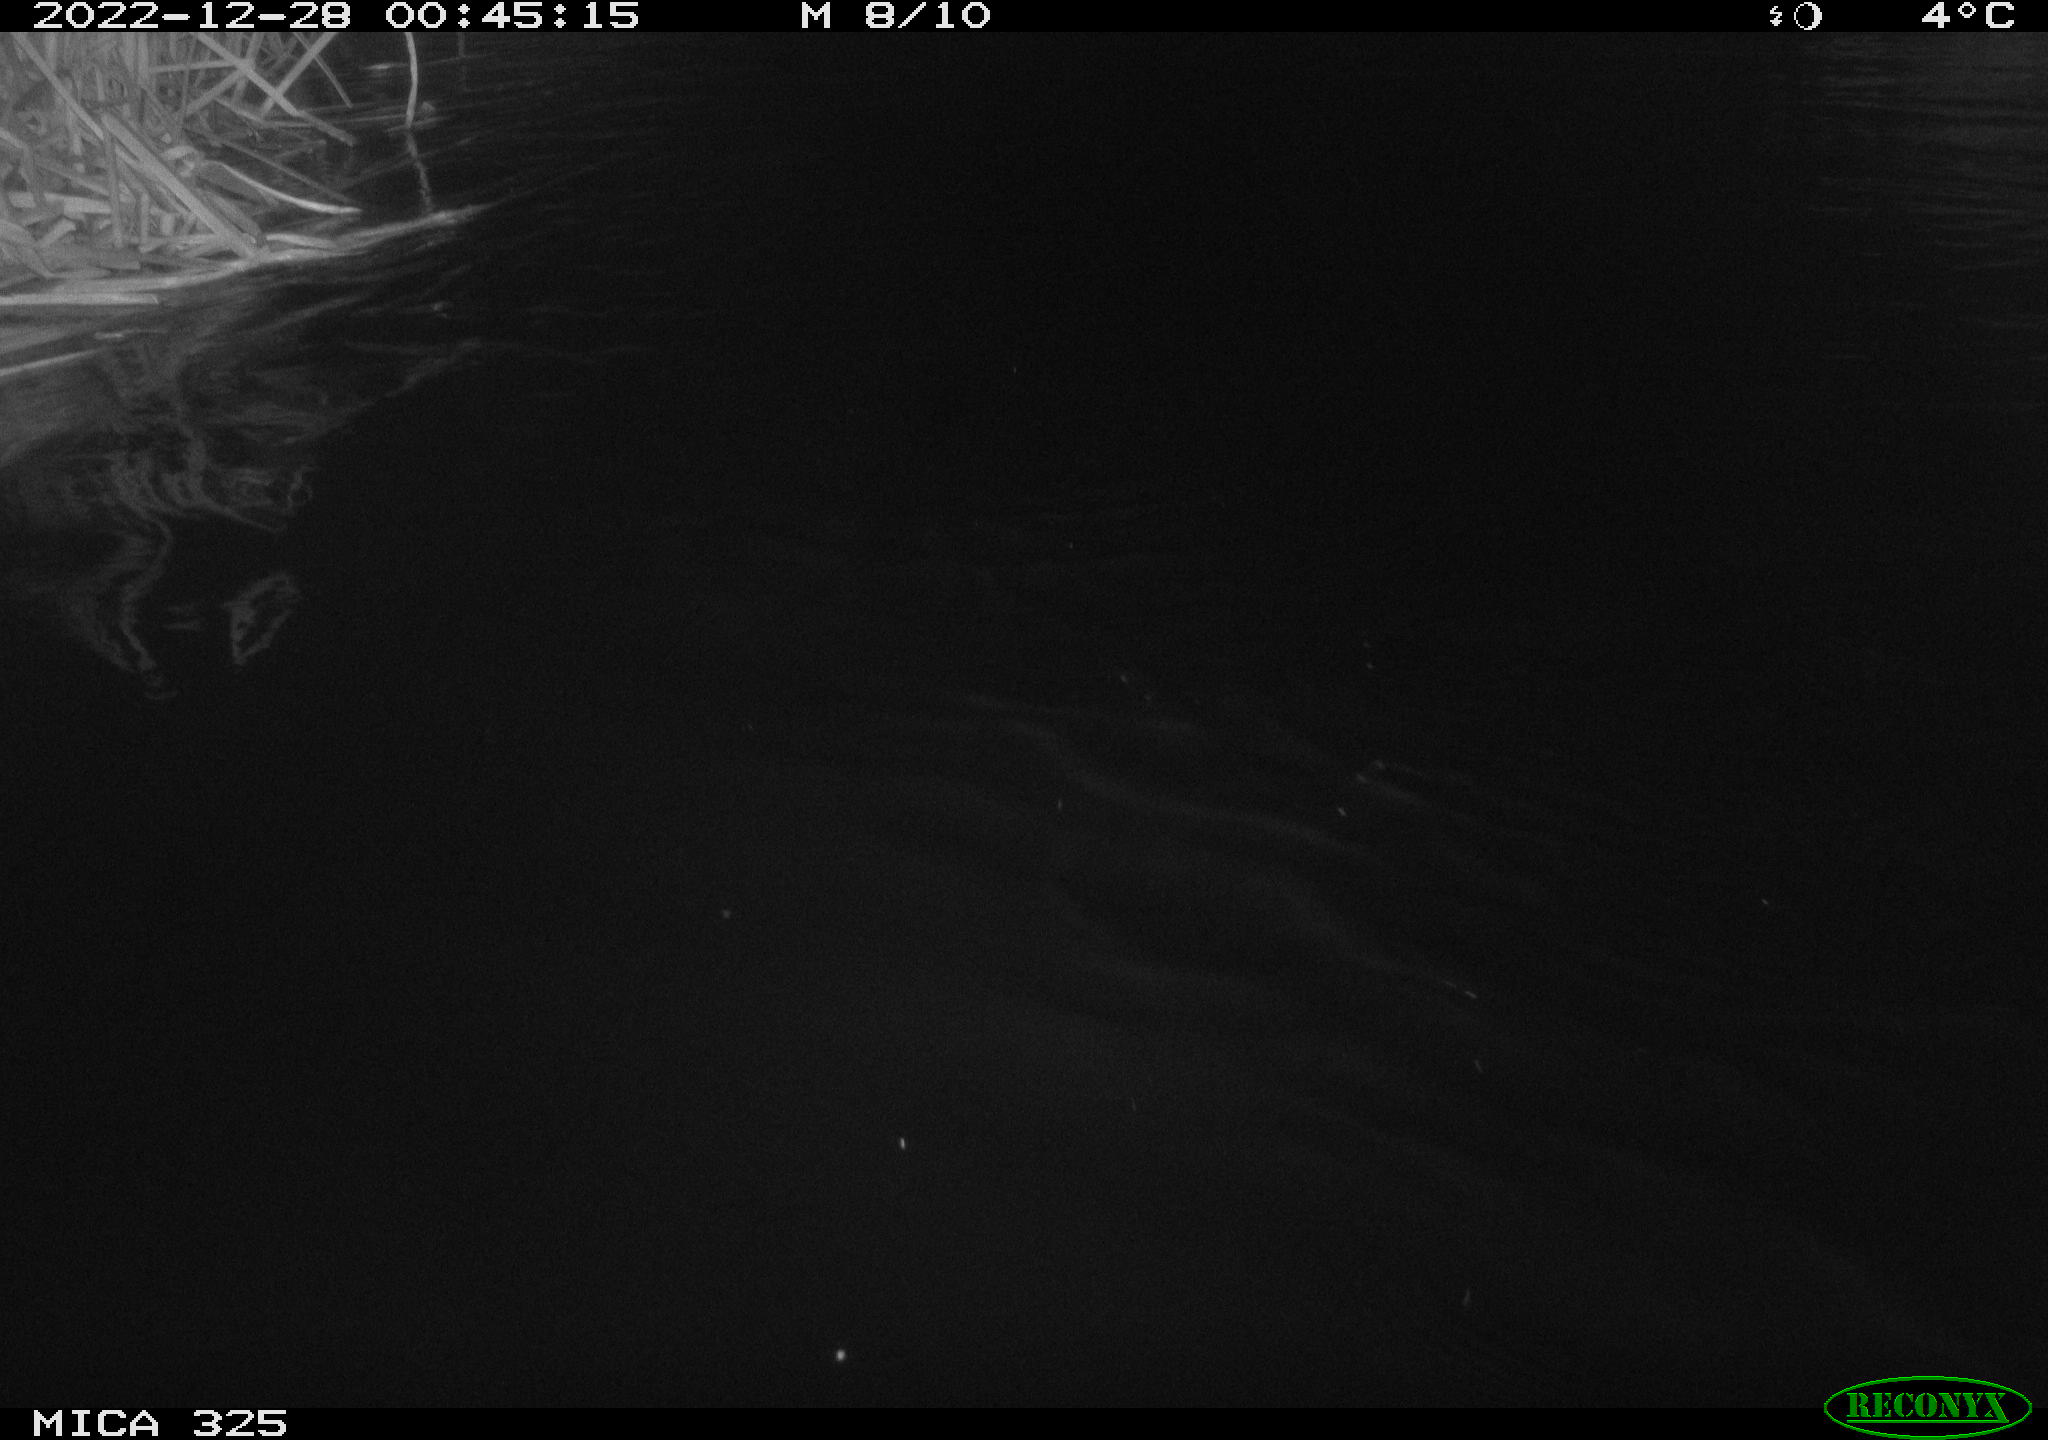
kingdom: Animalia
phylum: Chordata
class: Mammalia
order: Rodentia
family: Castoridae
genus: Castor
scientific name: Castor fiber
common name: Eurasian beaver
